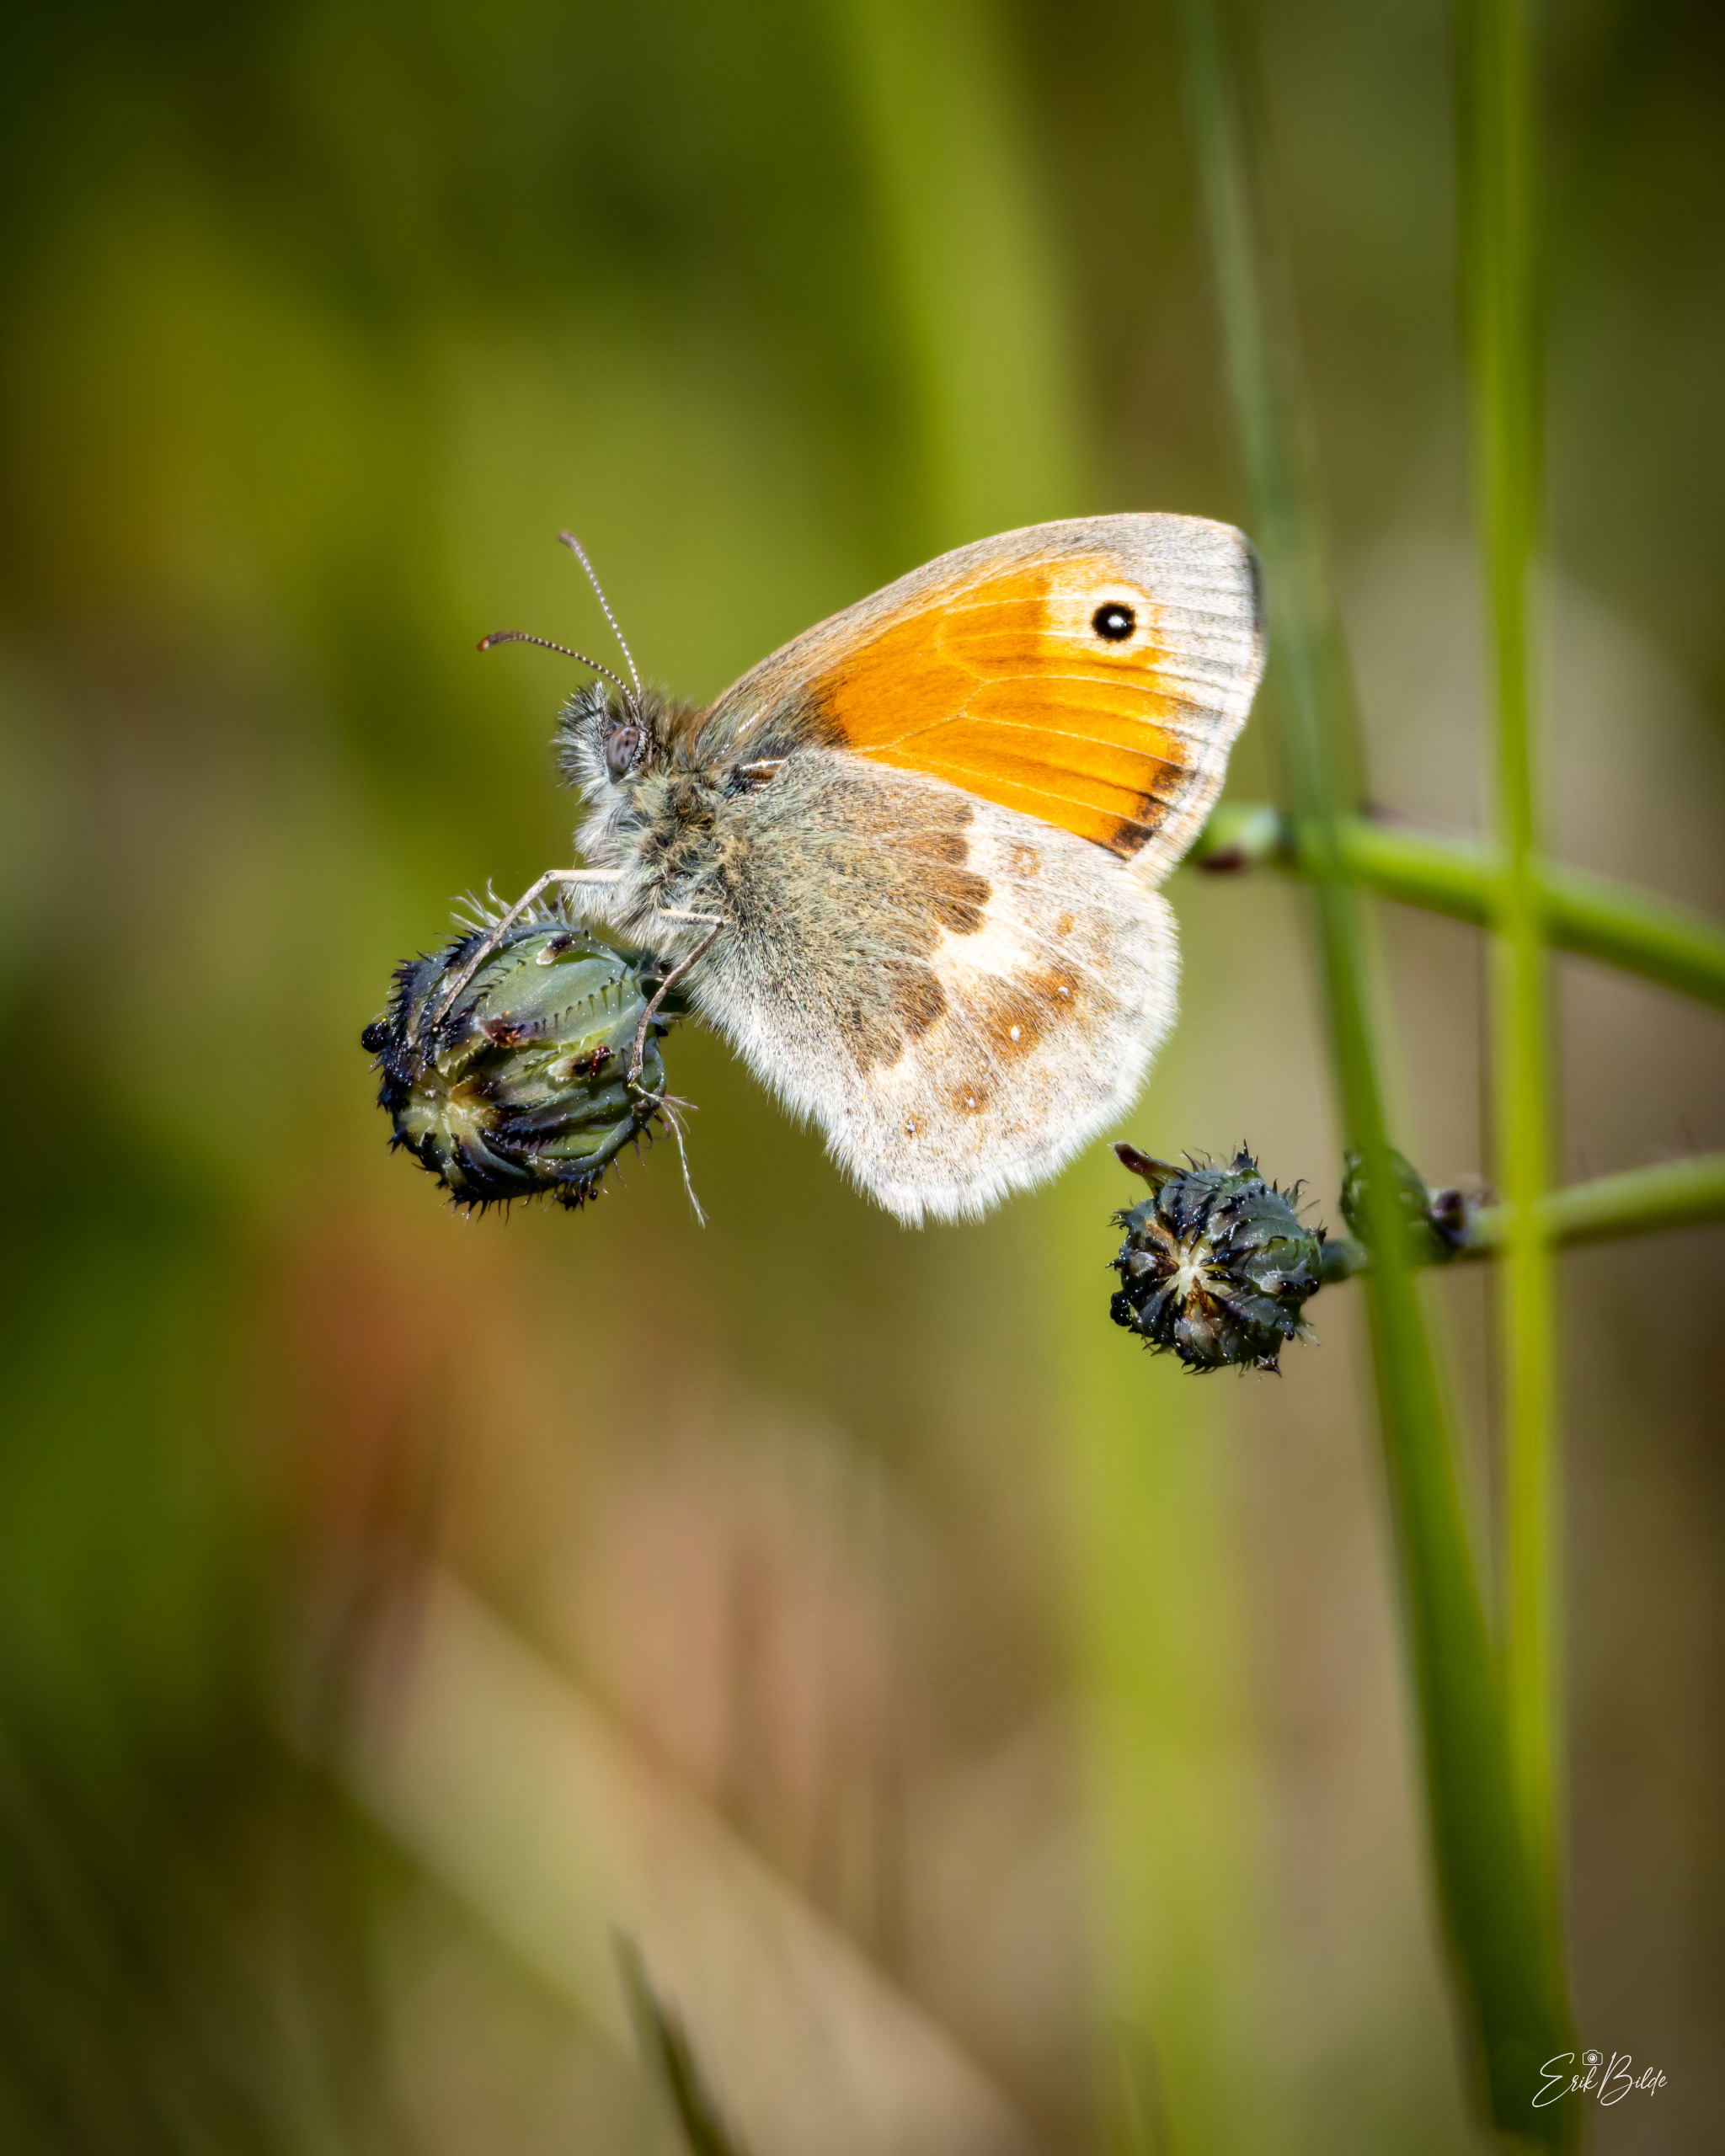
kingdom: Animalia
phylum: Arthropoda
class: Insecta
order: Lepidoptera
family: Nymphalidae
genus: Coenonympha
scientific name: Coenonympha pamphilus
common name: Okkergul randøje
